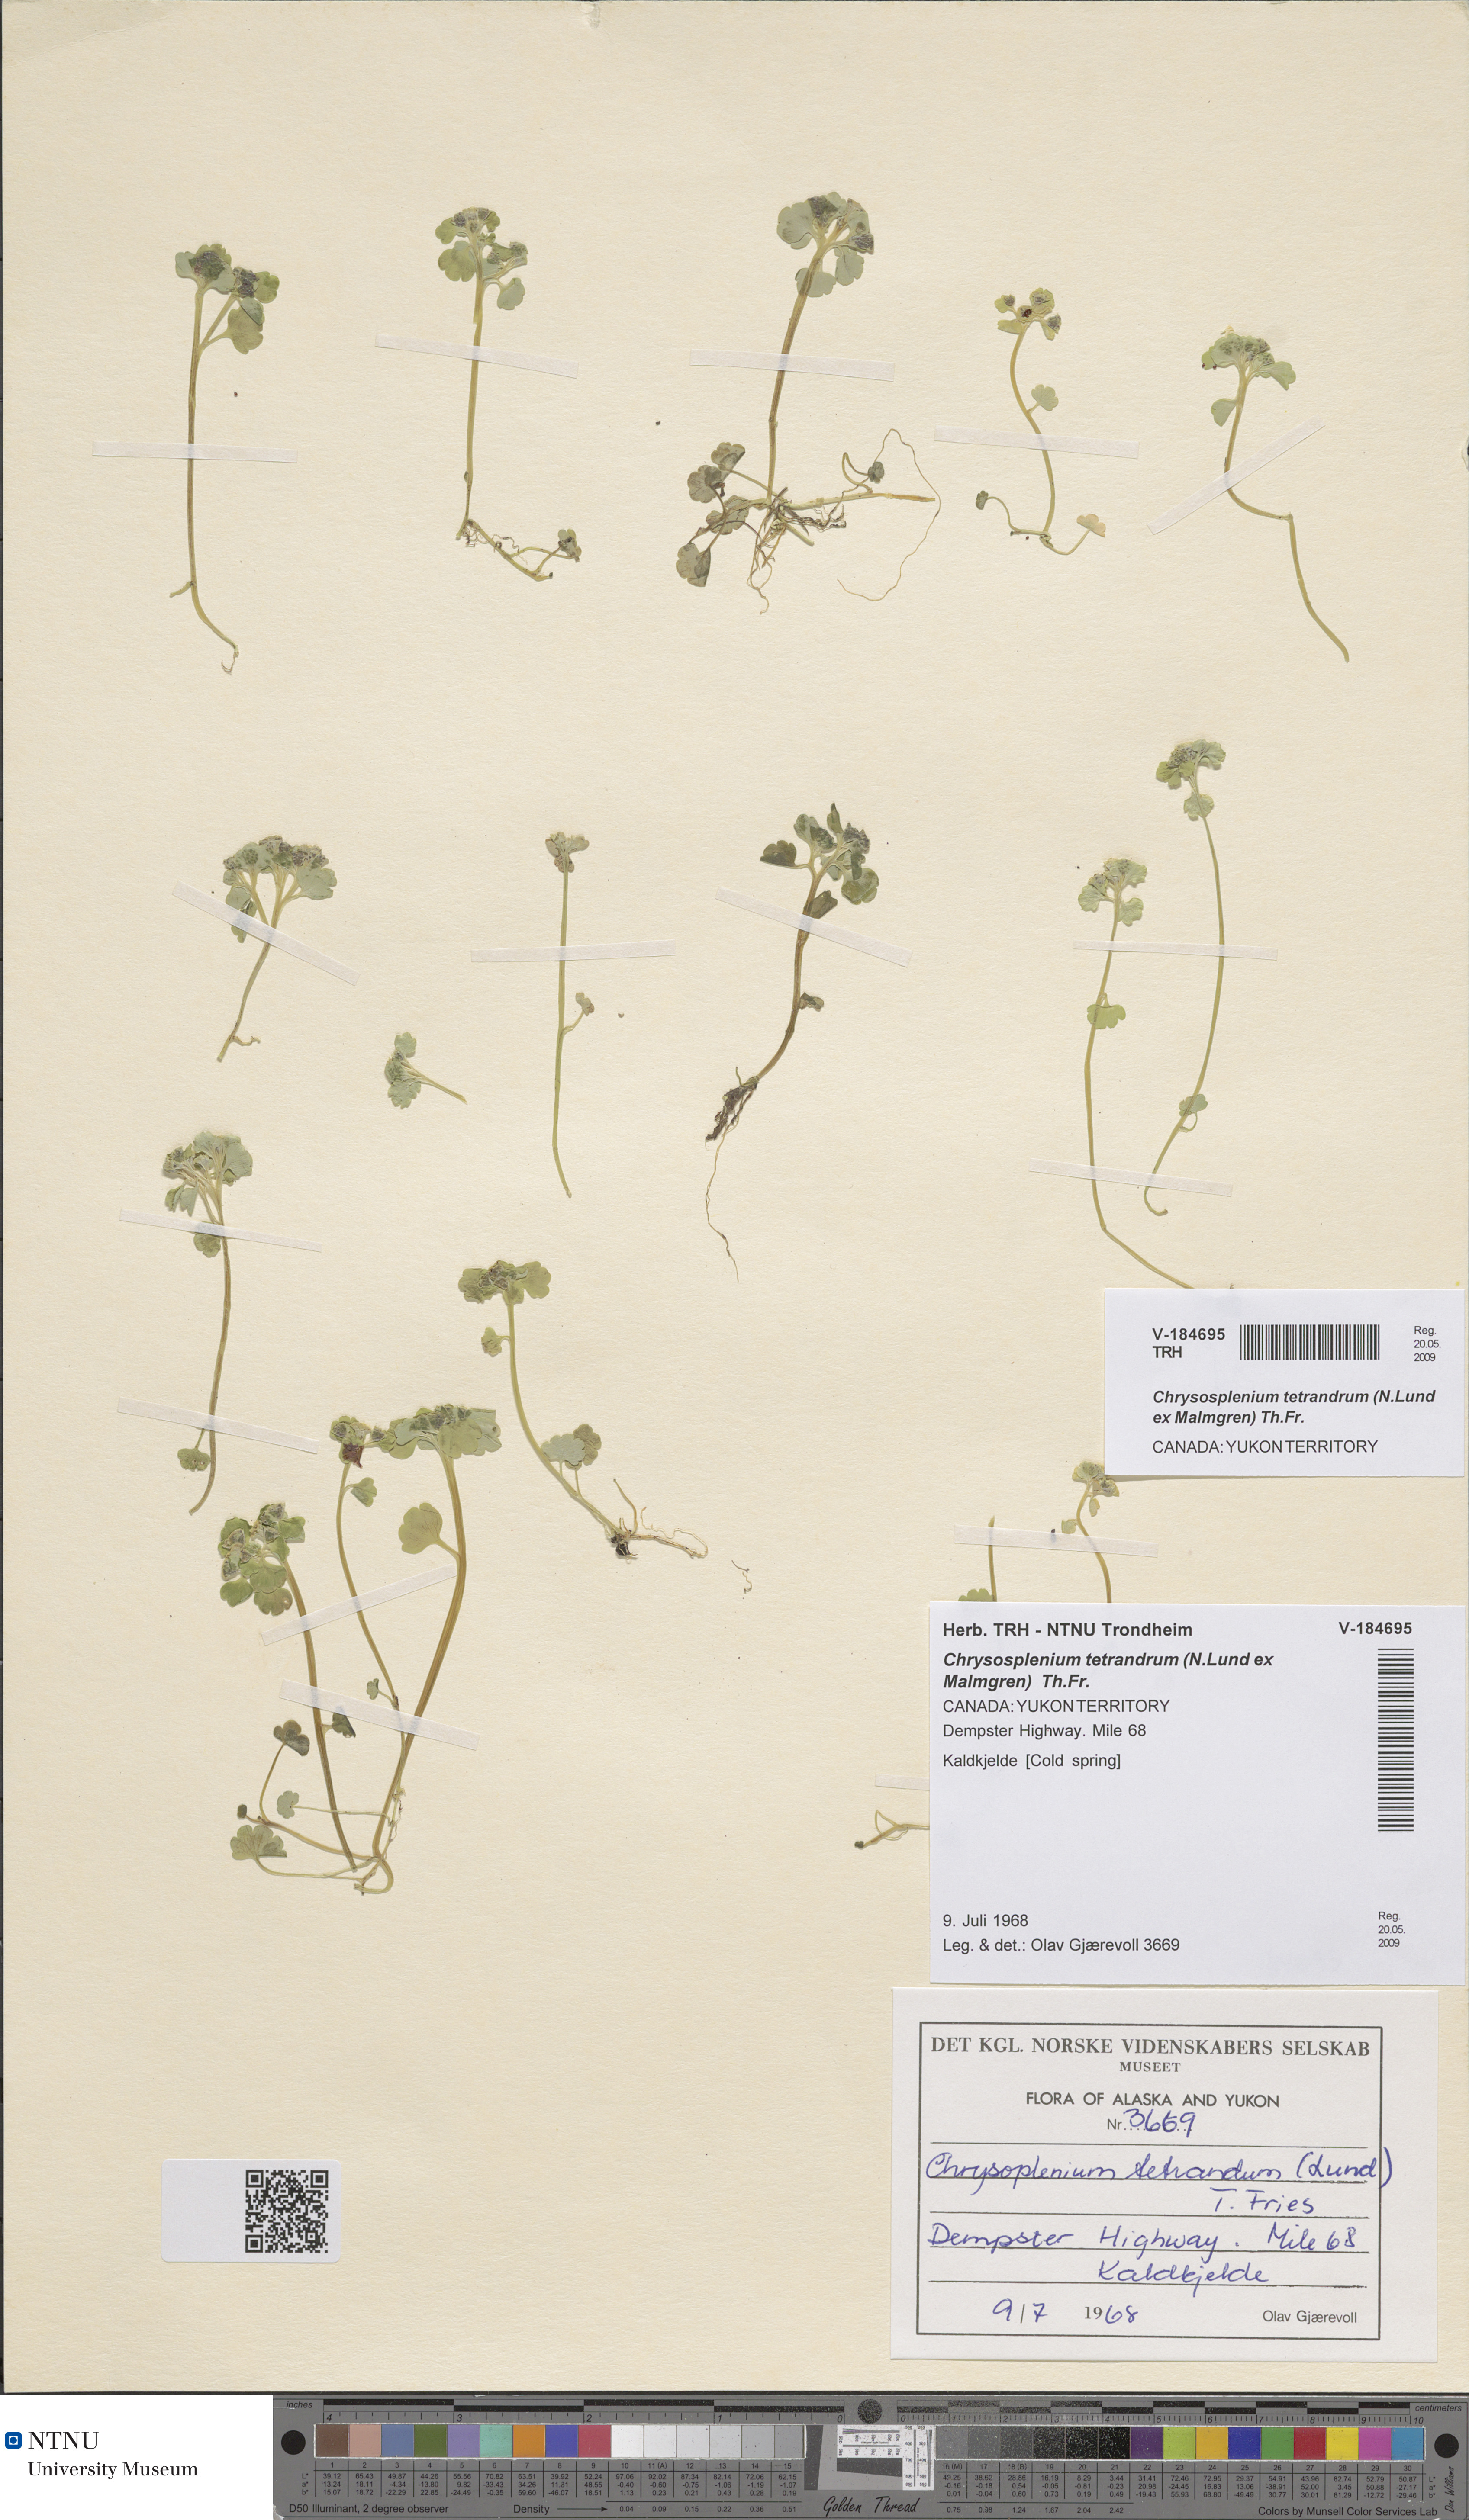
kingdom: Plantae
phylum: Tracheophyta
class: Magnoliopsida
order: Saxifragales
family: Saxifragaceae
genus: Chrysosplenium
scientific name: Chrysosplenium tetrandrum
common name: Green saxifrage
